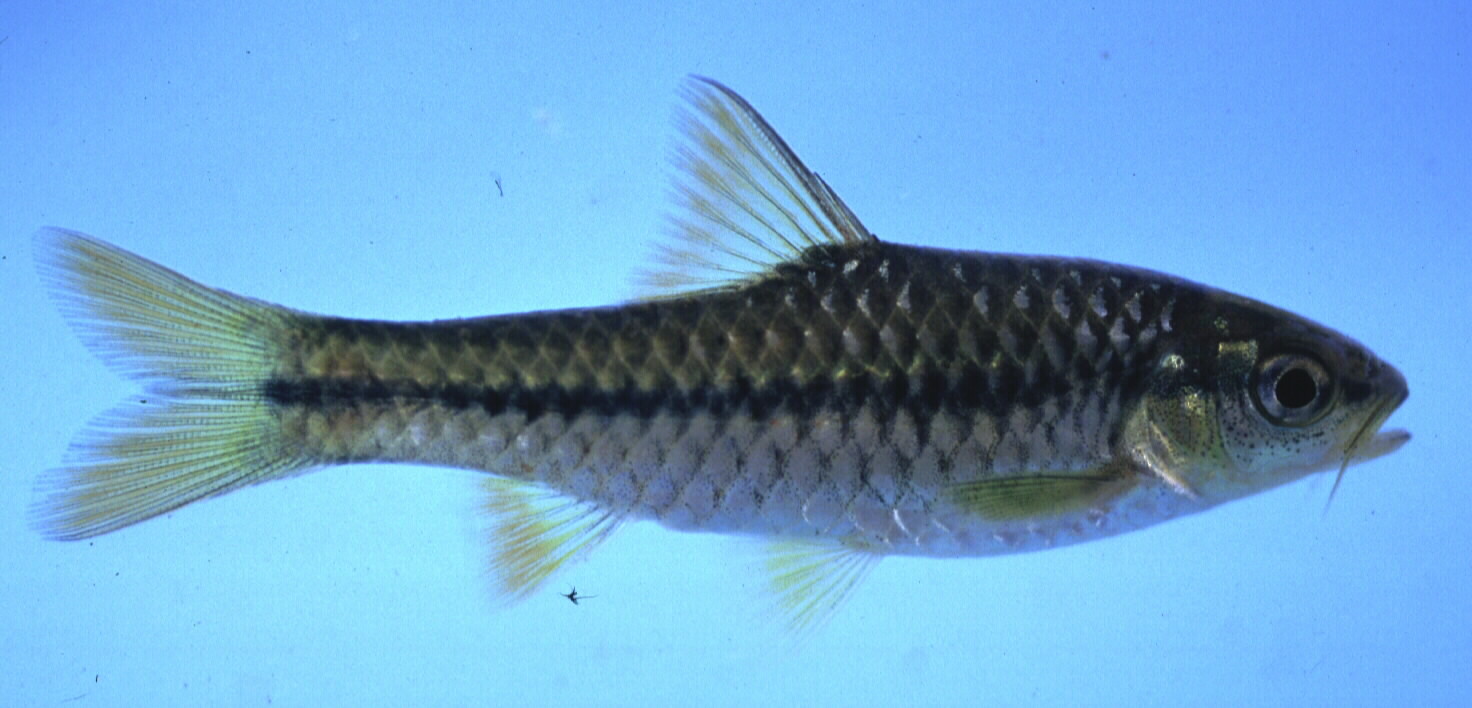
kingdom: Animalia
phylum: Chordata
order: Cypriniformes
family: Cyprinidae
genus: Enteromius
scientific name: Enteromius eutaenia
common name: Orangefin barb
